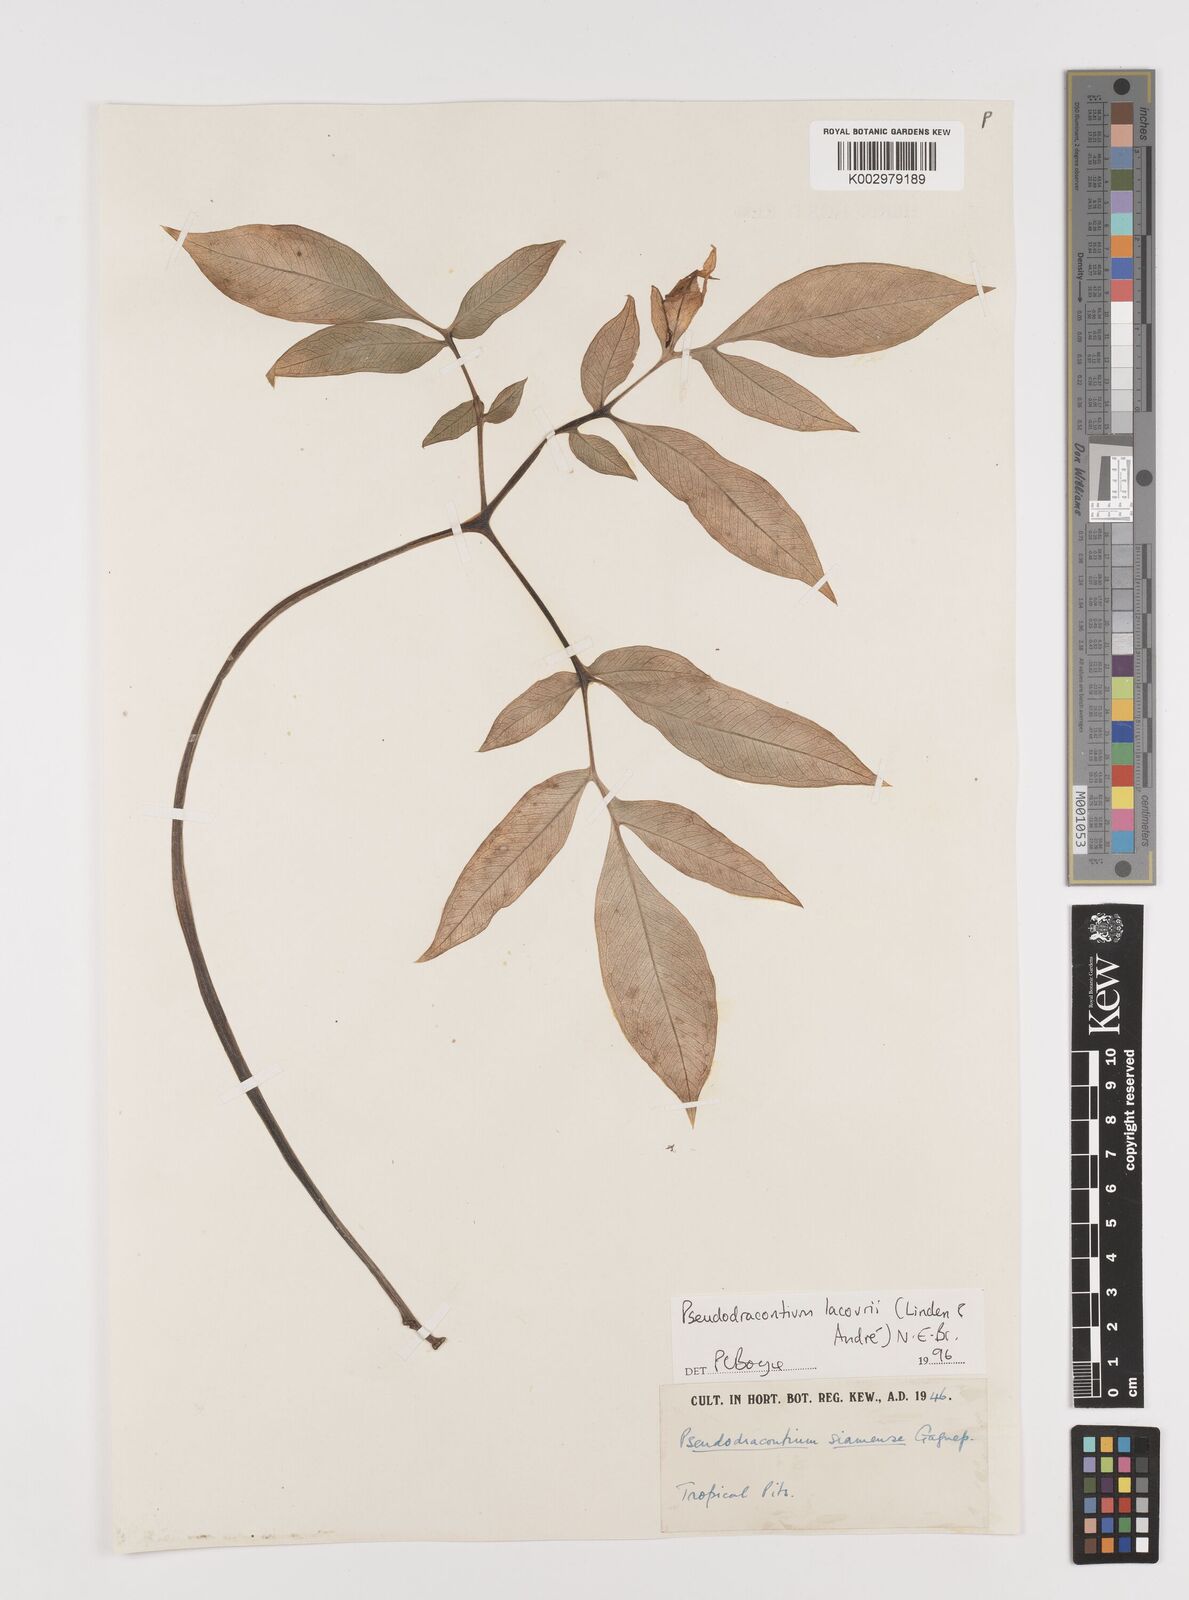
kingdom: Plantae
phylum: Tracheophyta
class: Liliopsida
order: Alismatales
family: Araceae
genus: Amorphophallus
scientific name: Amorphophallus lacourii
